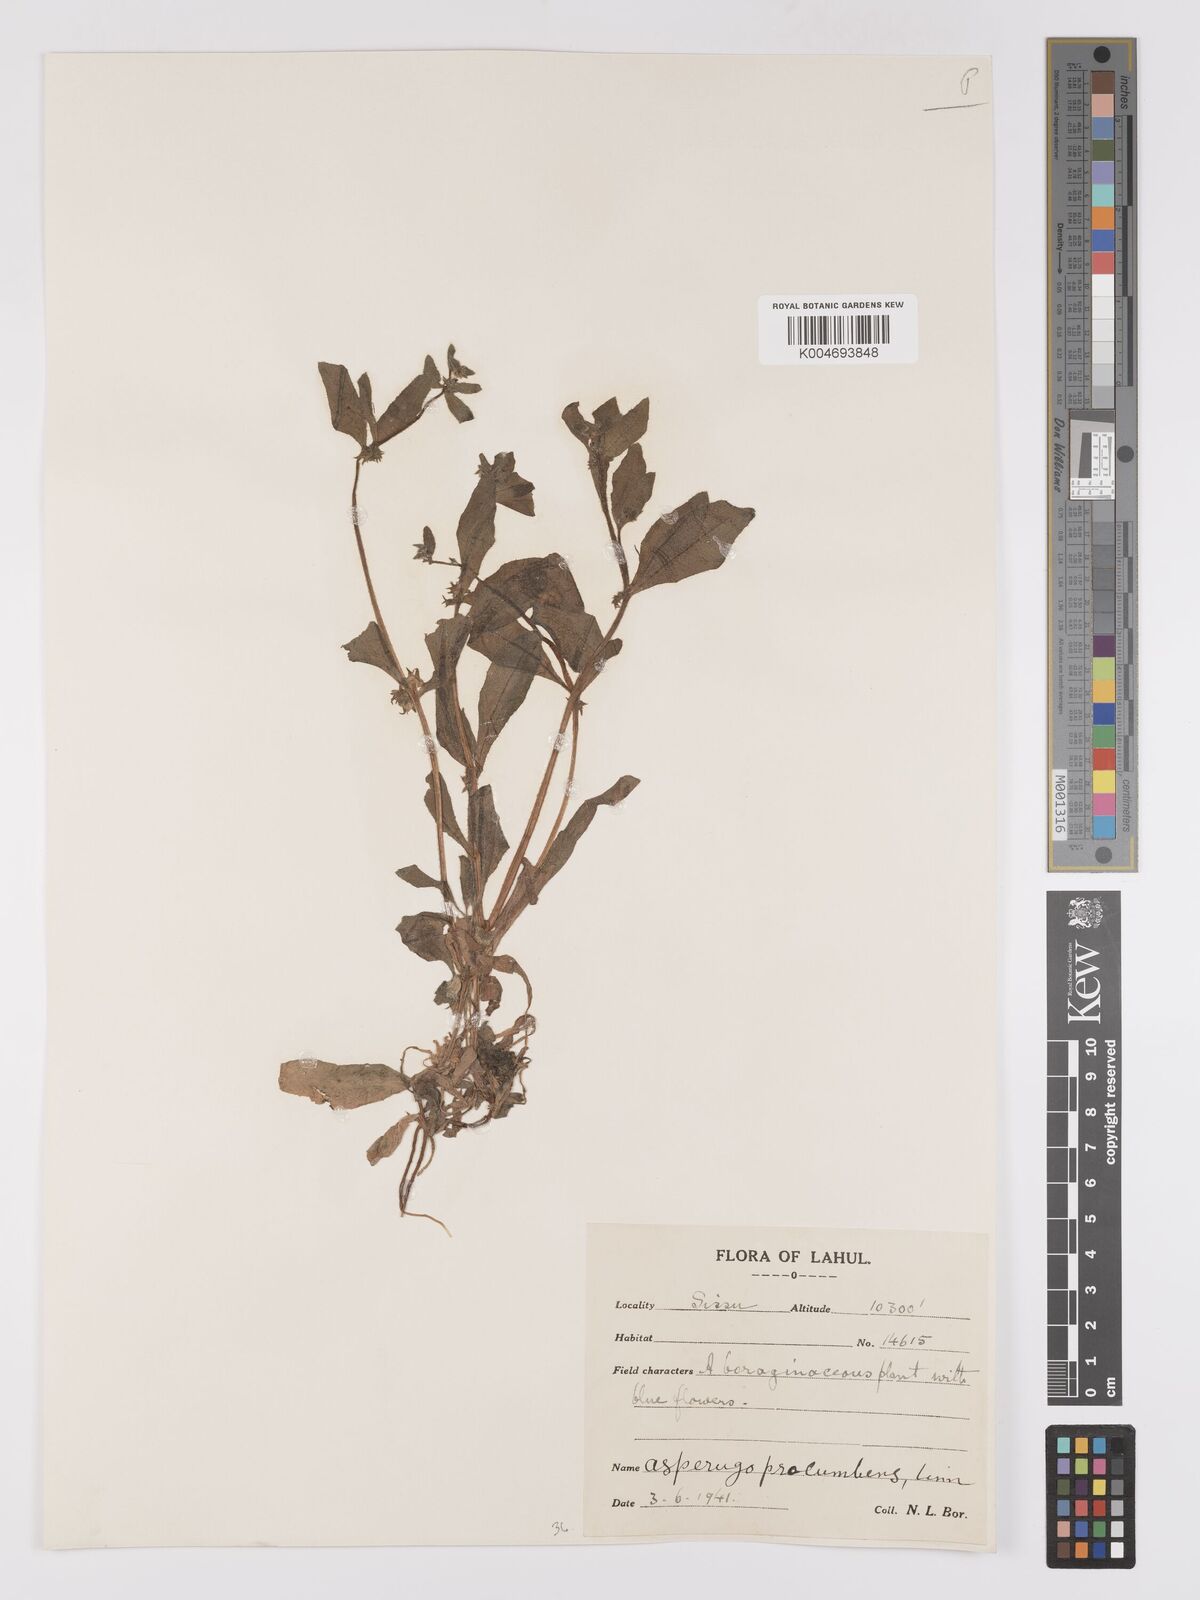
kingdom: Plantae
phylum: Tracheophyta
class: Magnoliopsida
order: Boraginales
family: Boraginaceae
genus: Asperugo
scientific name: Asperugo procumbens
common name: Madwort
